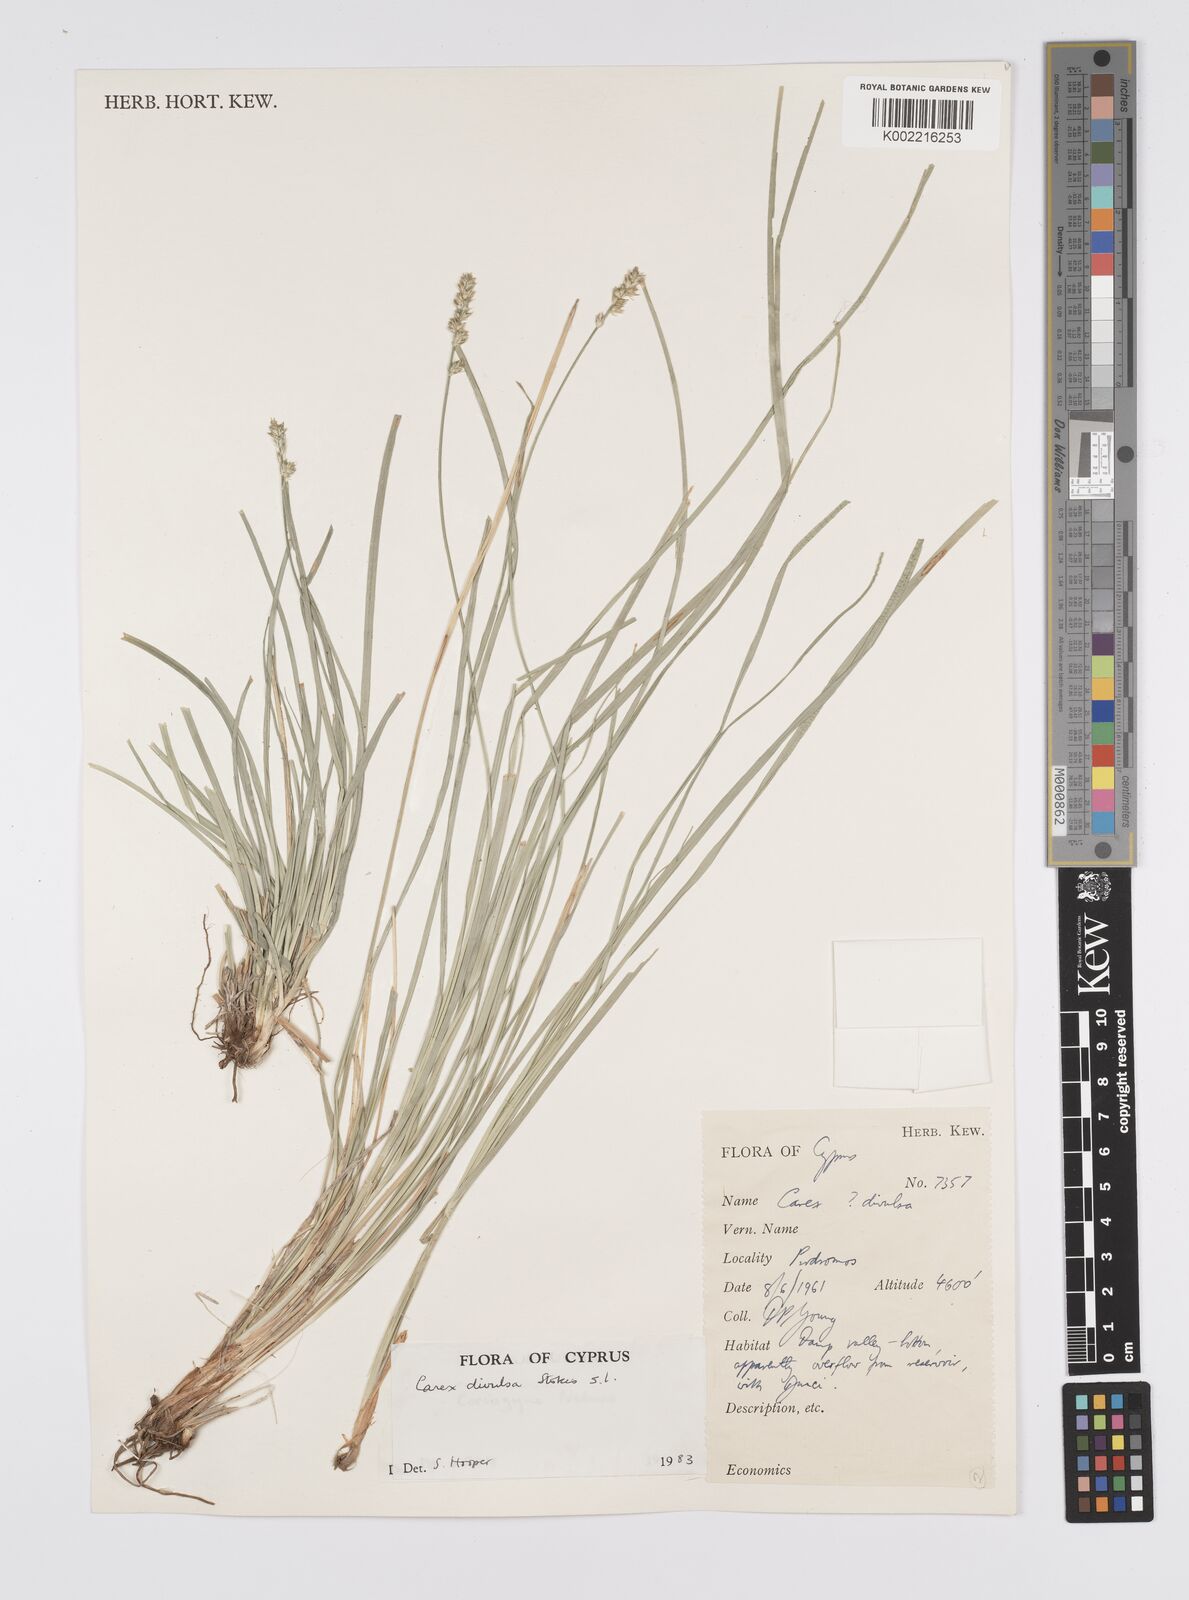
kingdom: Plantae
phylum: Tracheophyta
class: Liliopsida
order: Poales
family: Cyperaceae
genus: Carex
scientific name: Carex divulsa
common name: Grassland sedge
